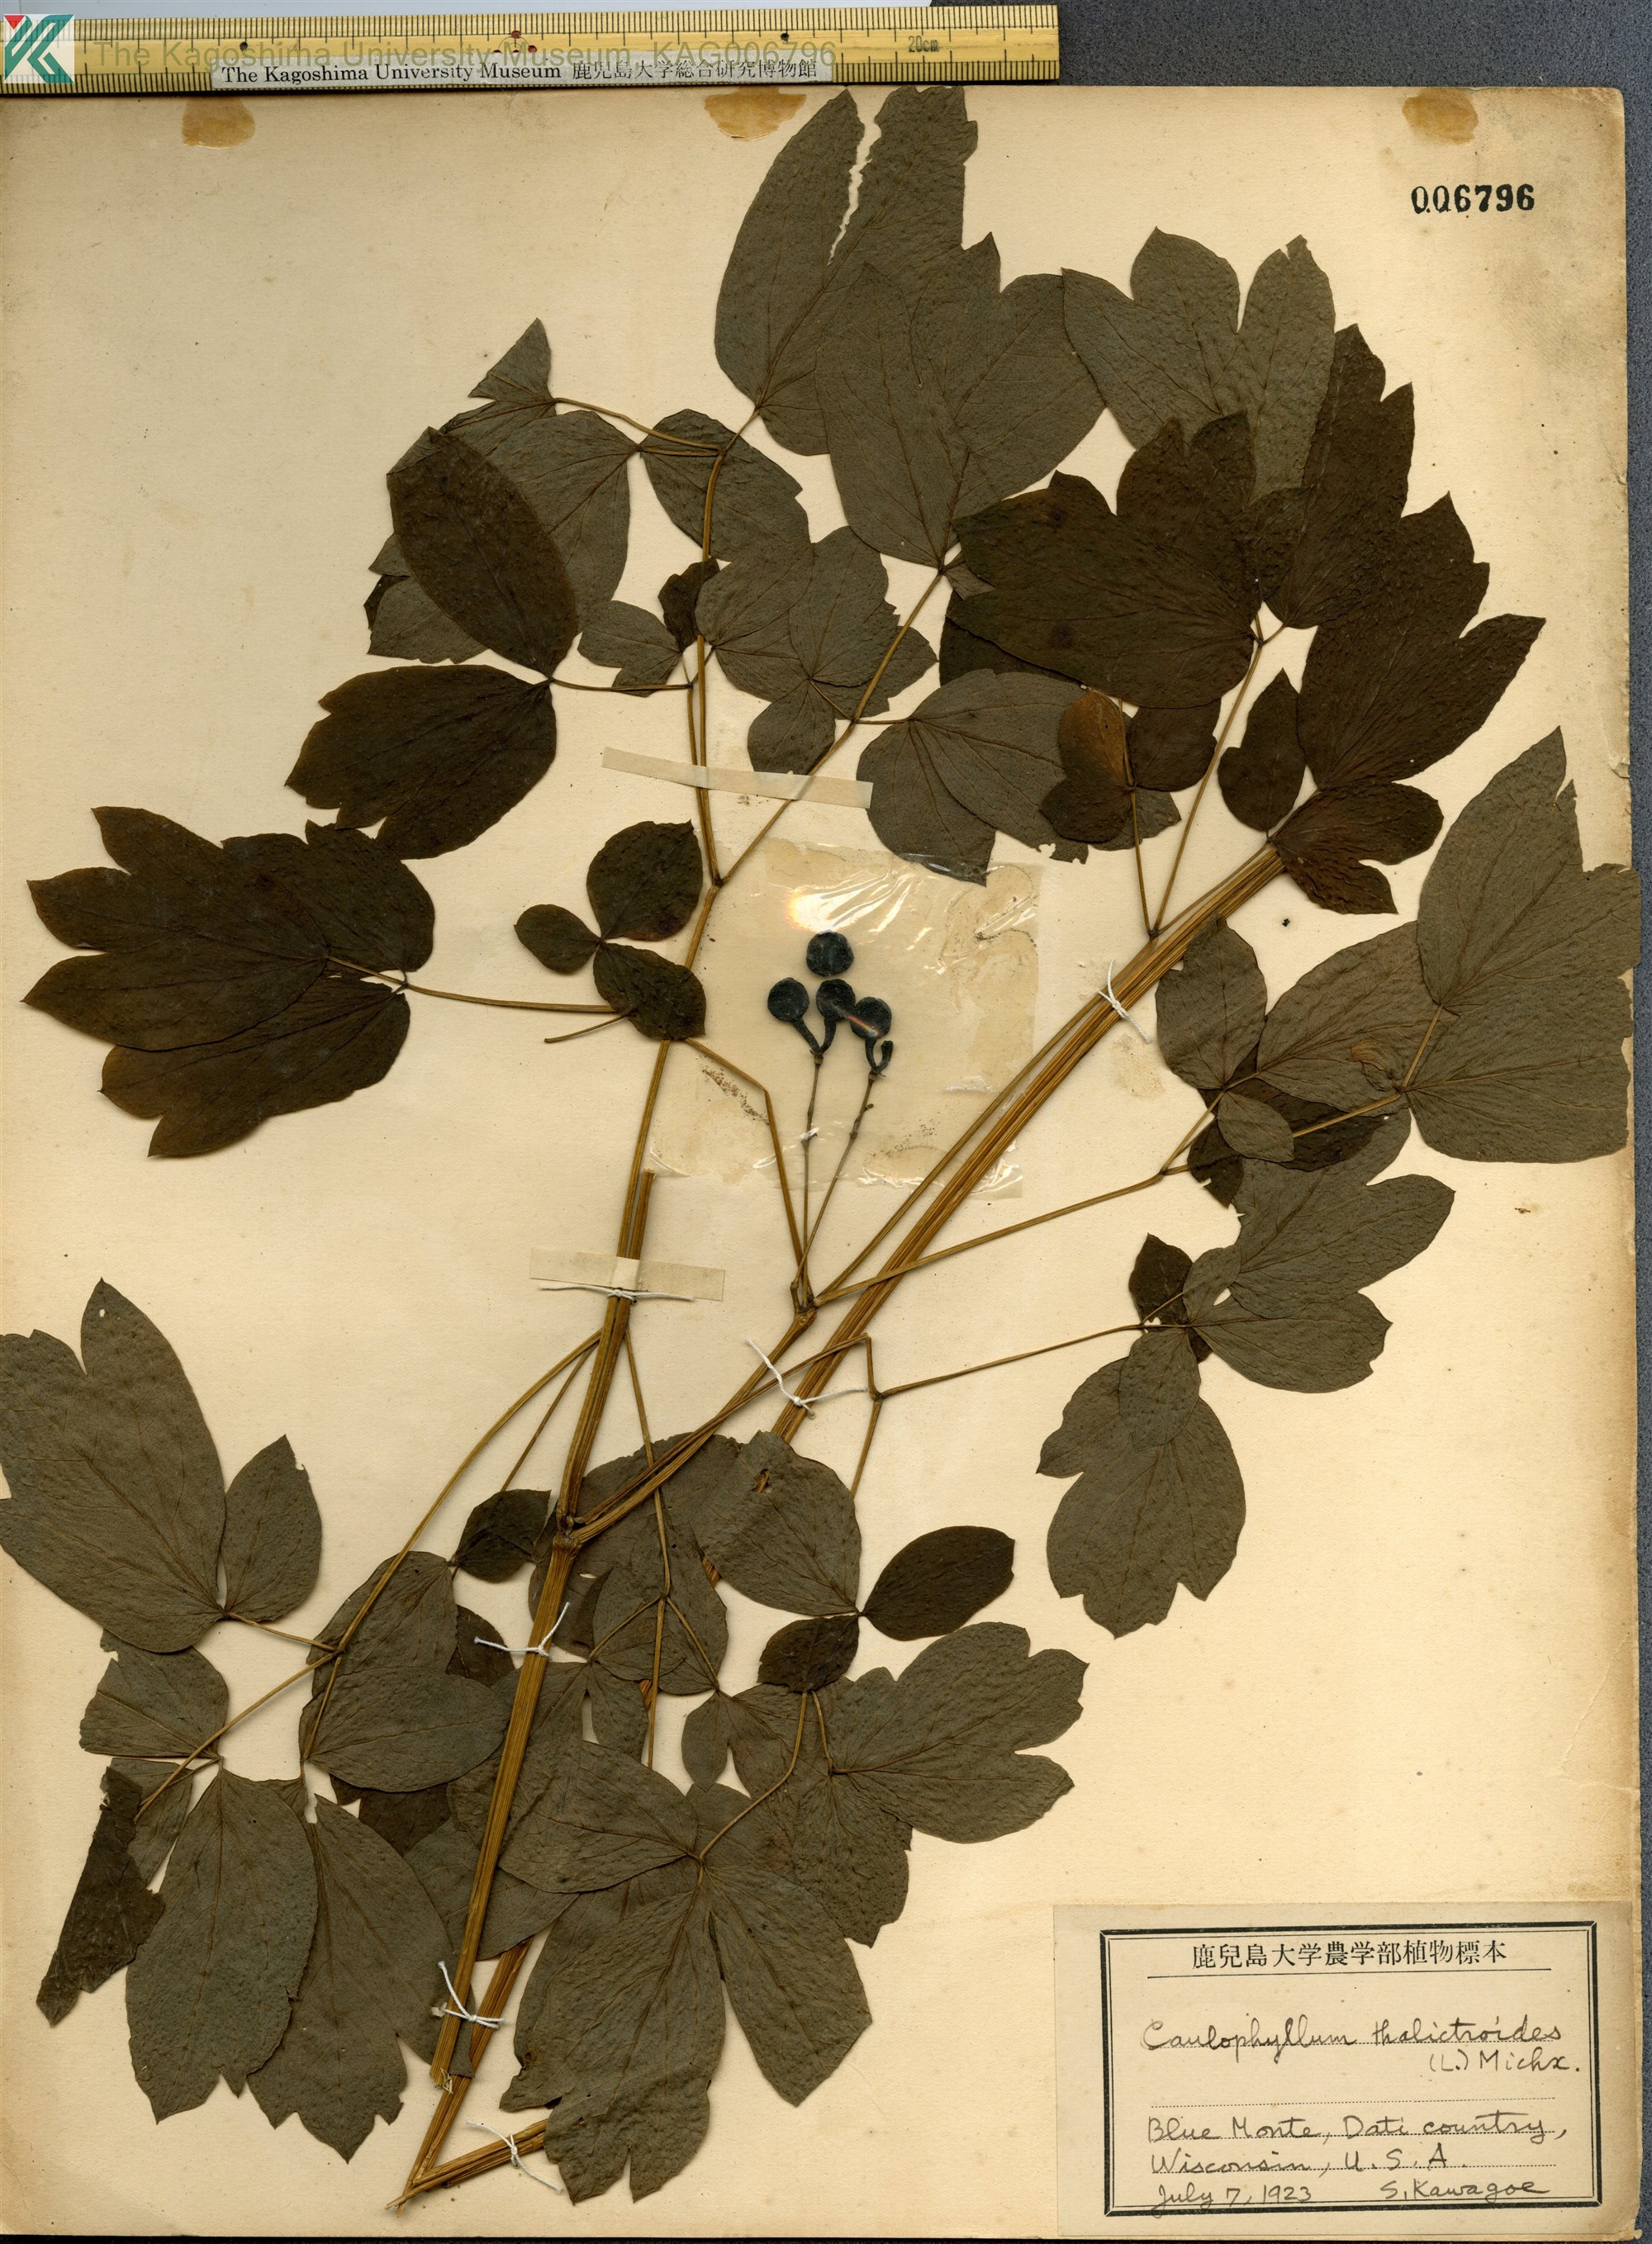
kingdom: Plantae
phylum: Tracheophyta
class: Magnoliopsida
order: Ranunculales
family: Berberidaceae
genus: Caulophyllum
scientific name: Caulophyllum thalictroides
